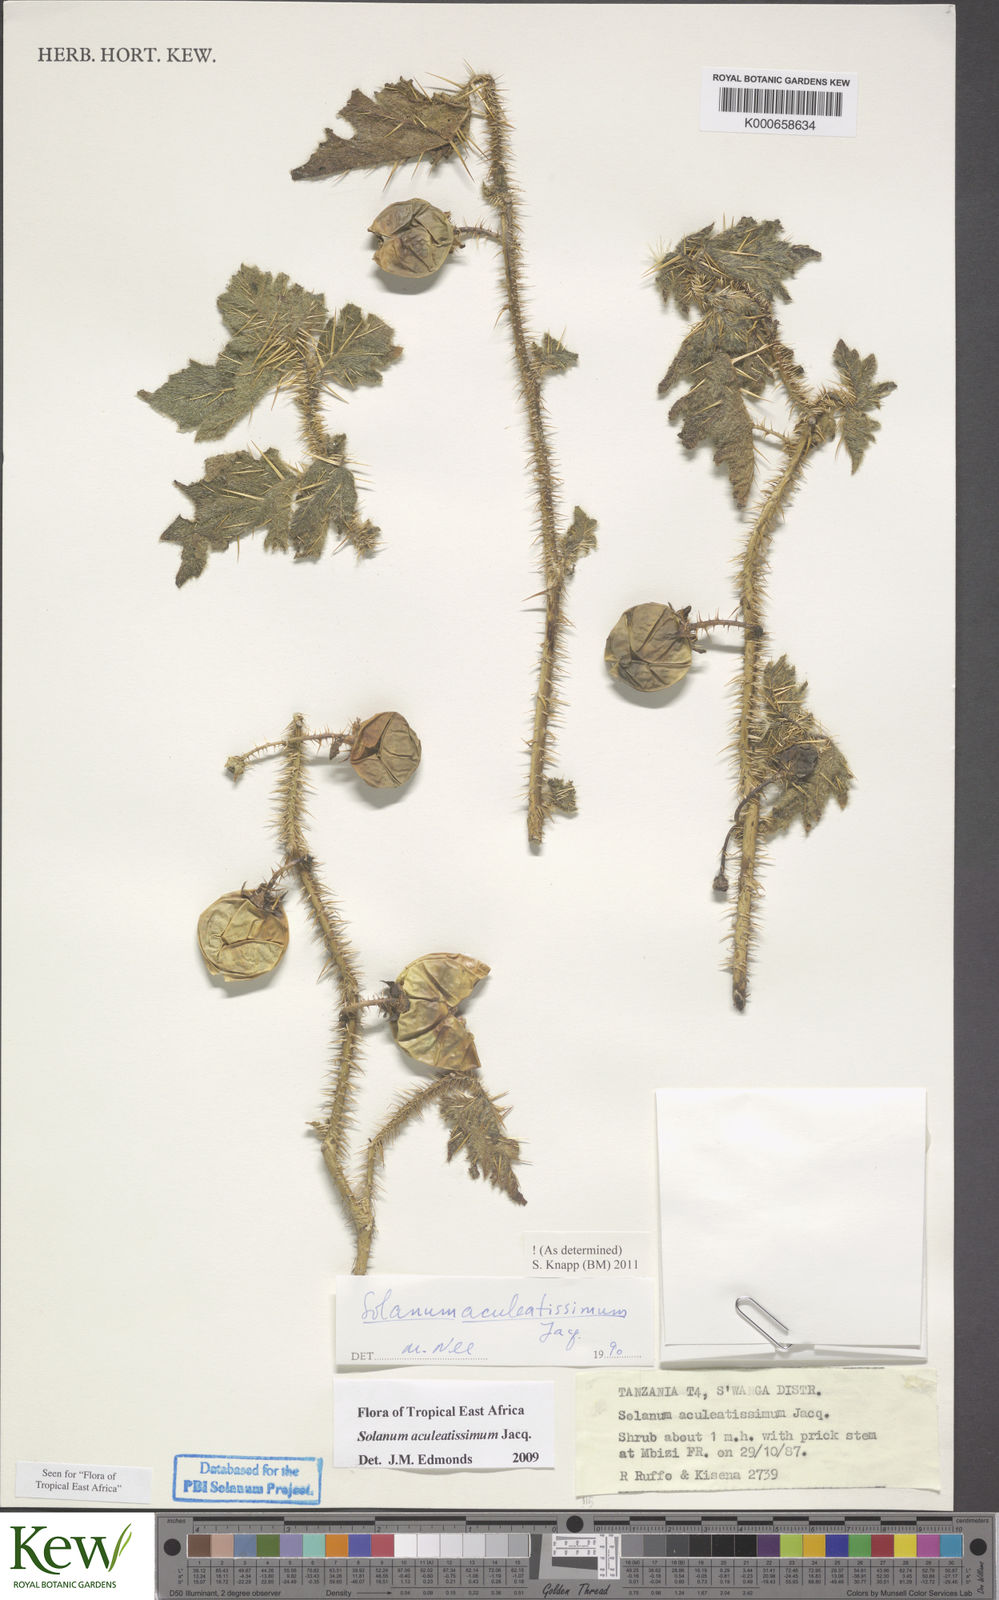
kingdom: Plantae
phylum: Tracheophyta
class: Magnoliopsida
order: Solanales
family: Solanaceae
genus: Solanum
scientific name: Solanum aculeatissimum
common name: Dutch eggplant
